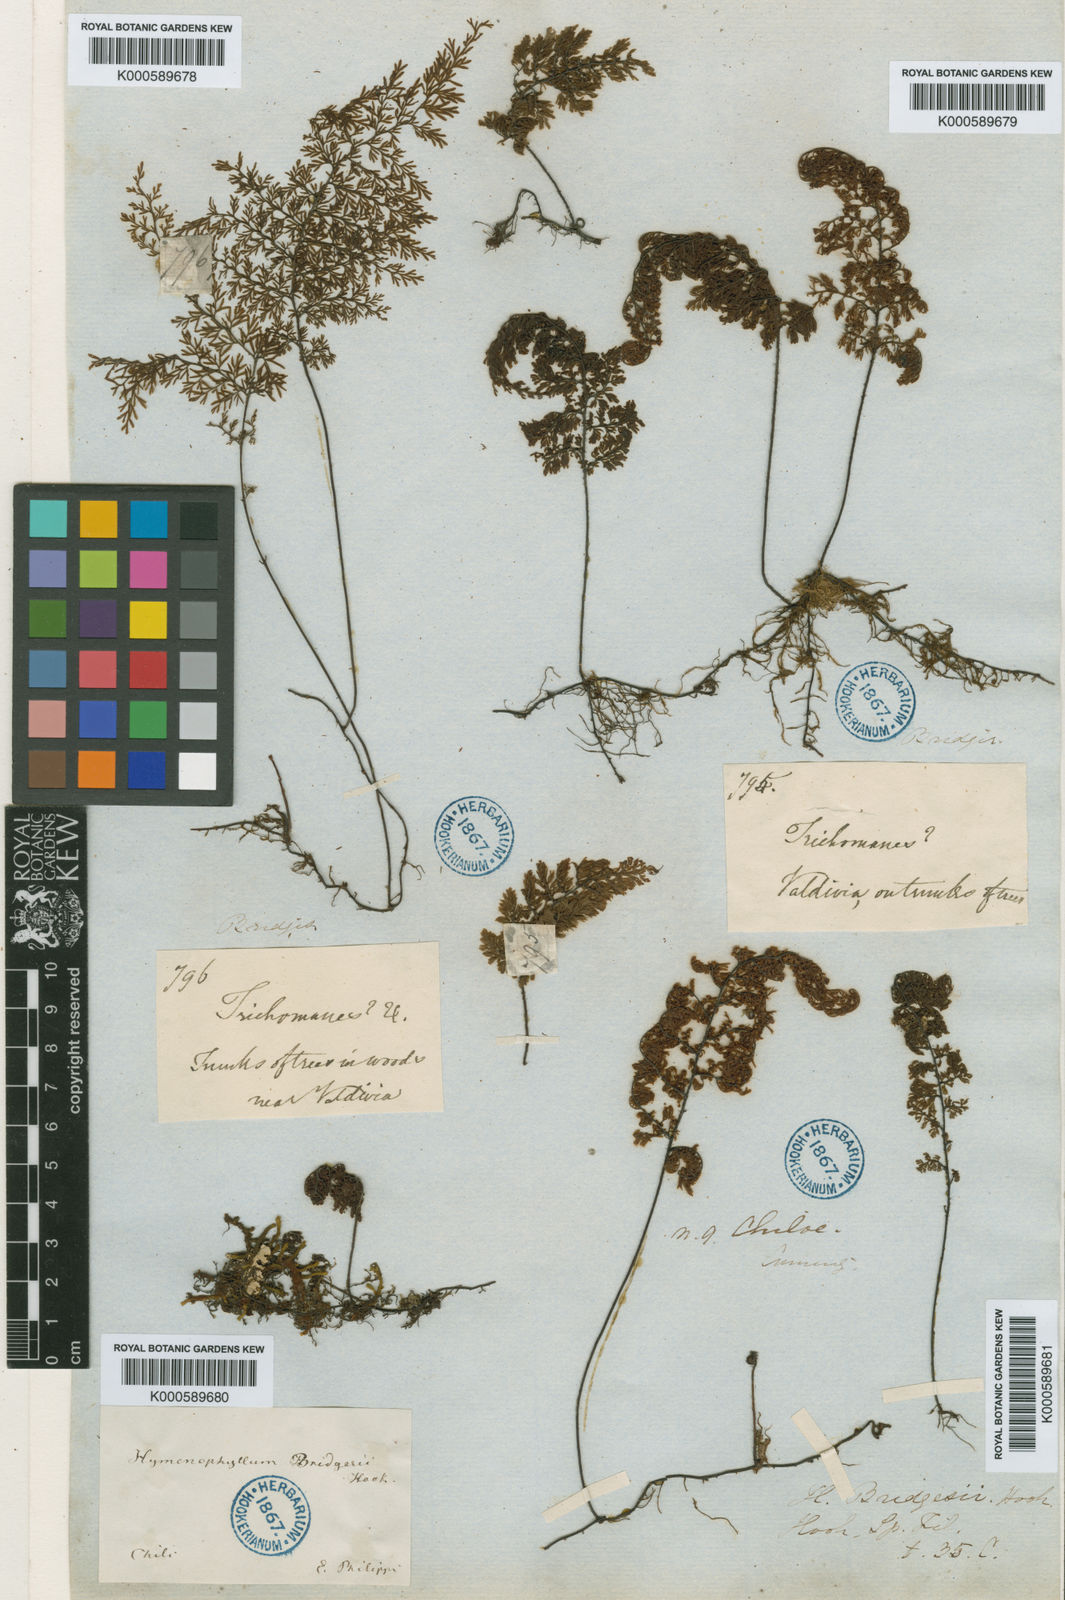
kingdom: Plantae
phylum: Tracheophyta
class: Polypodiopsida
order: Hymenophyllales
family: Hymenophyllaceae
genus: Hymenophyllum
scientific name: Hymenophyllum dentatum
